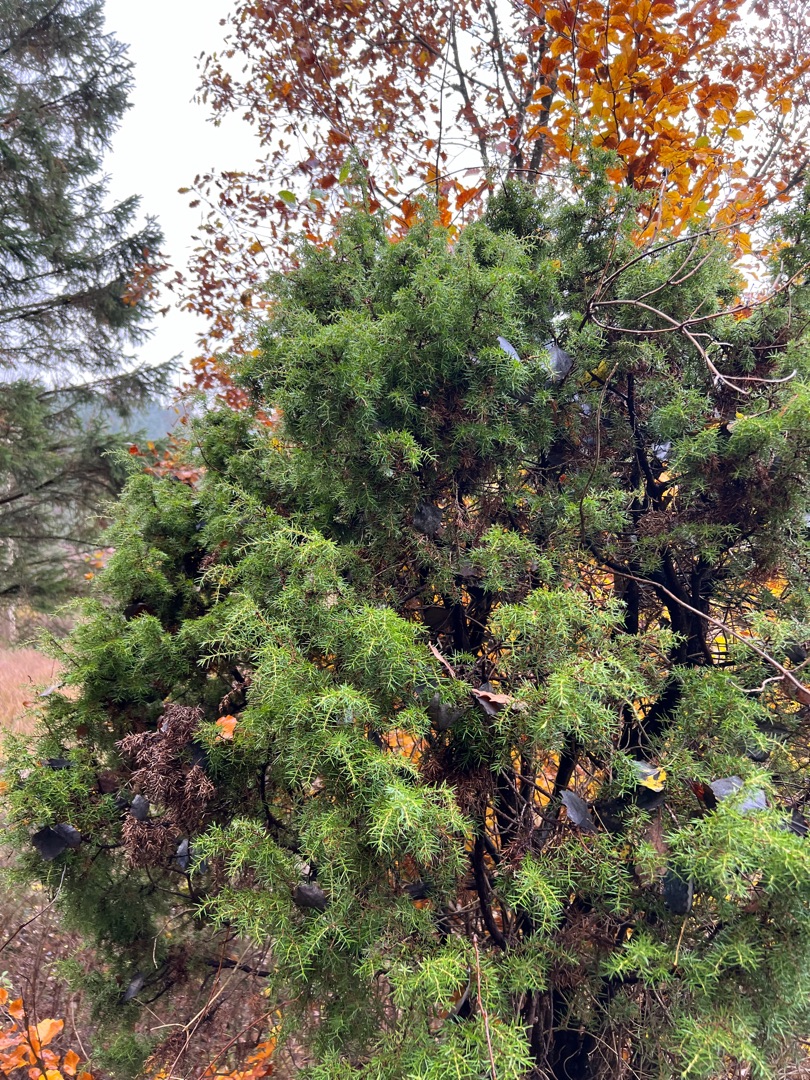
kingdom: Plantae
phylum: Tracheophyta
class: Pinopsida
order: Pinales
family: Cupressaceae
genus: Juniperus
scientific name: Juniperus communis
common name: Almindelig ene
